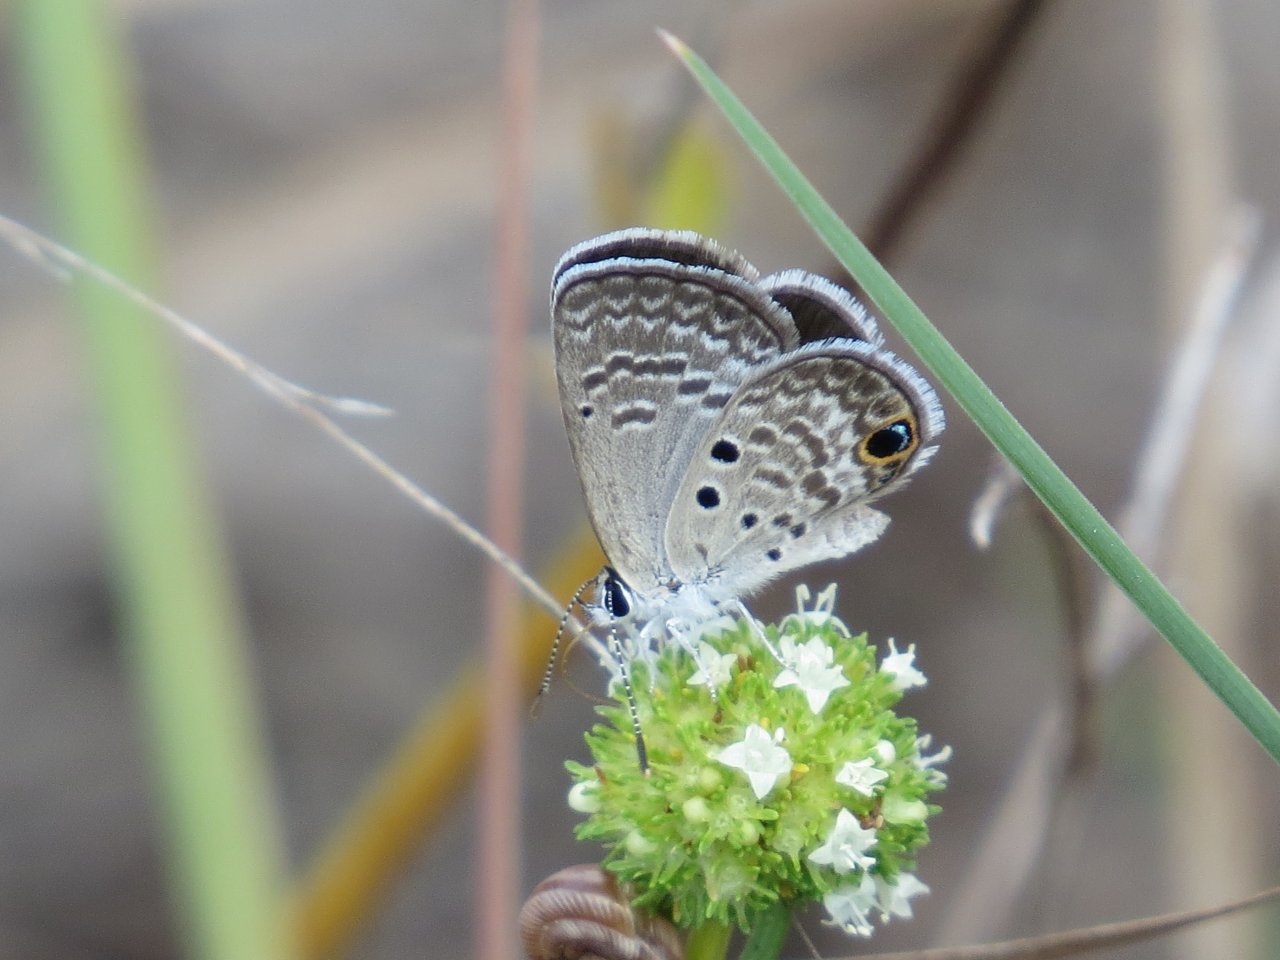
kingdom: Animalia
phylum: Arthropoda
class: Insecta
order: Lepidoptera
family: Lycaenidae
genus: Hemiargus
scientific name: Hemiargus ceraunus
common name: Ceraunus Blue
